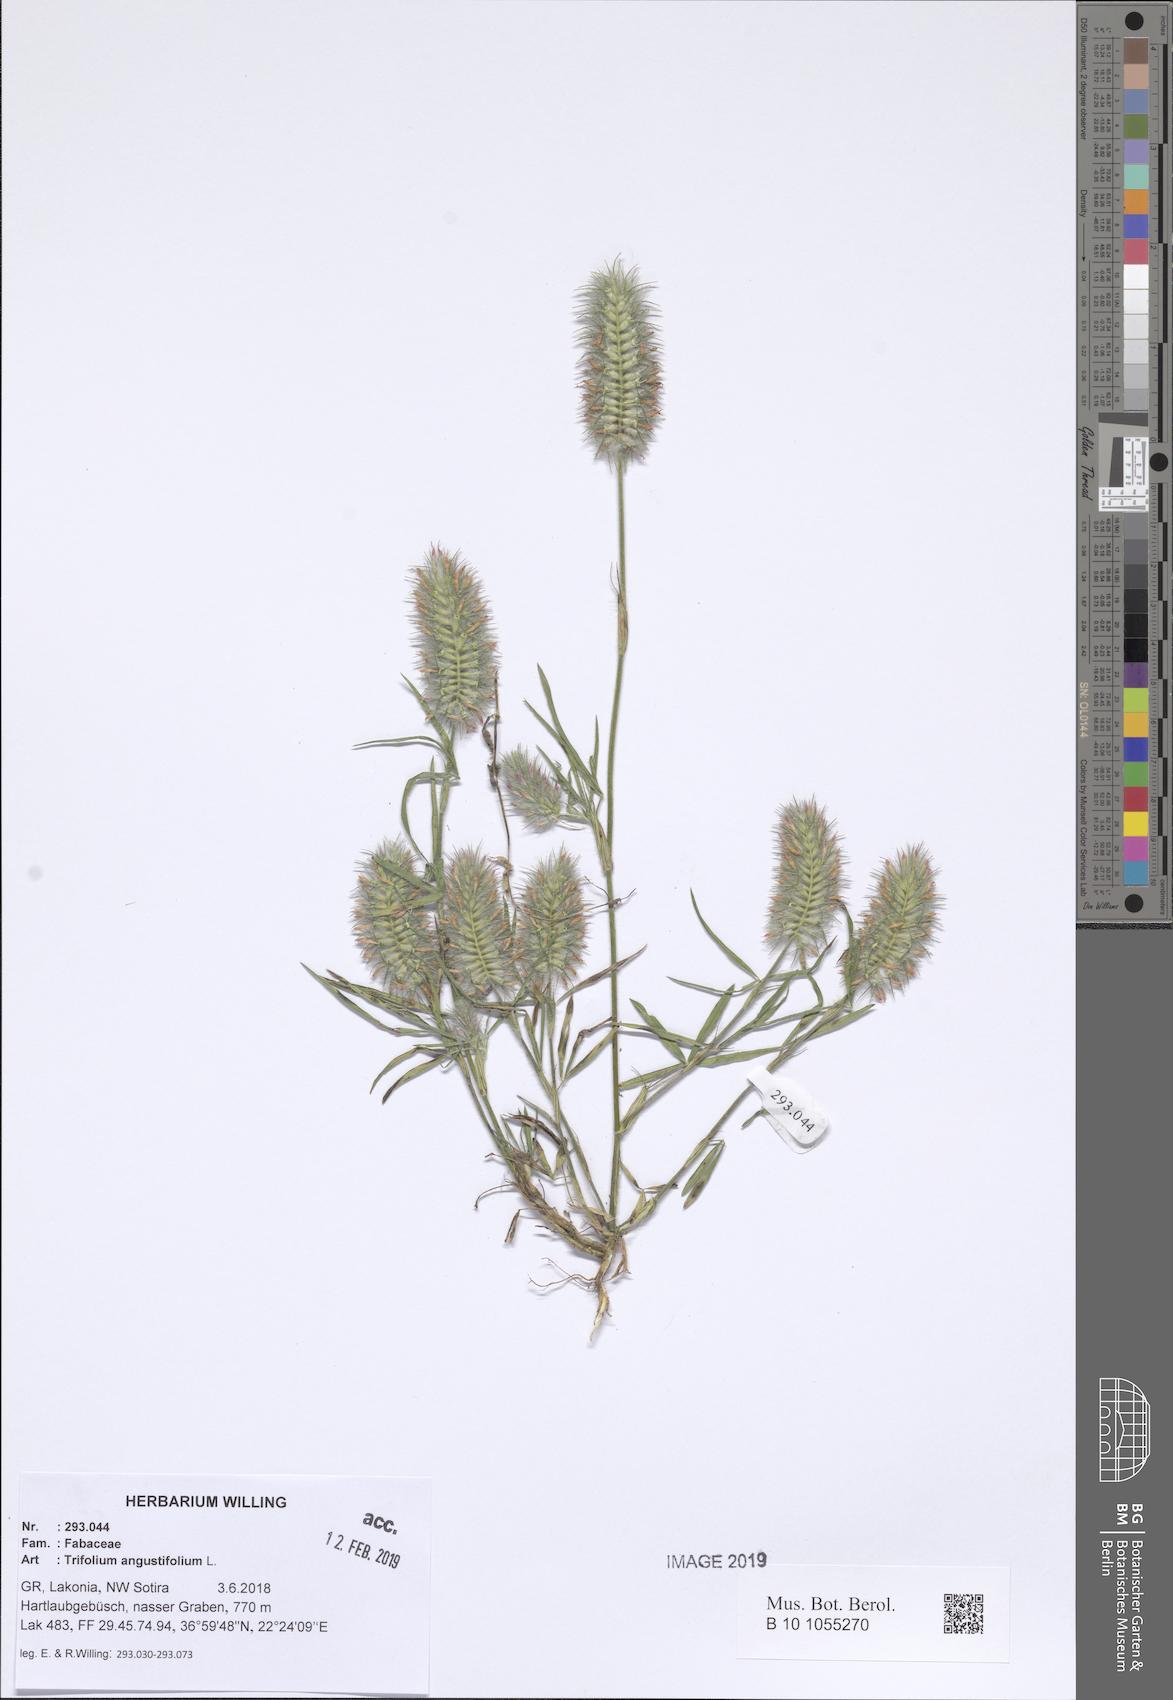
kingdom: Plantae
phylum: Tracheophyta
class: Magnoliopsida
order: Fabales
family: Fabaceae
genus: Trifolium
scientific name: Trifolium angustifolium
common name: Narrow clover
